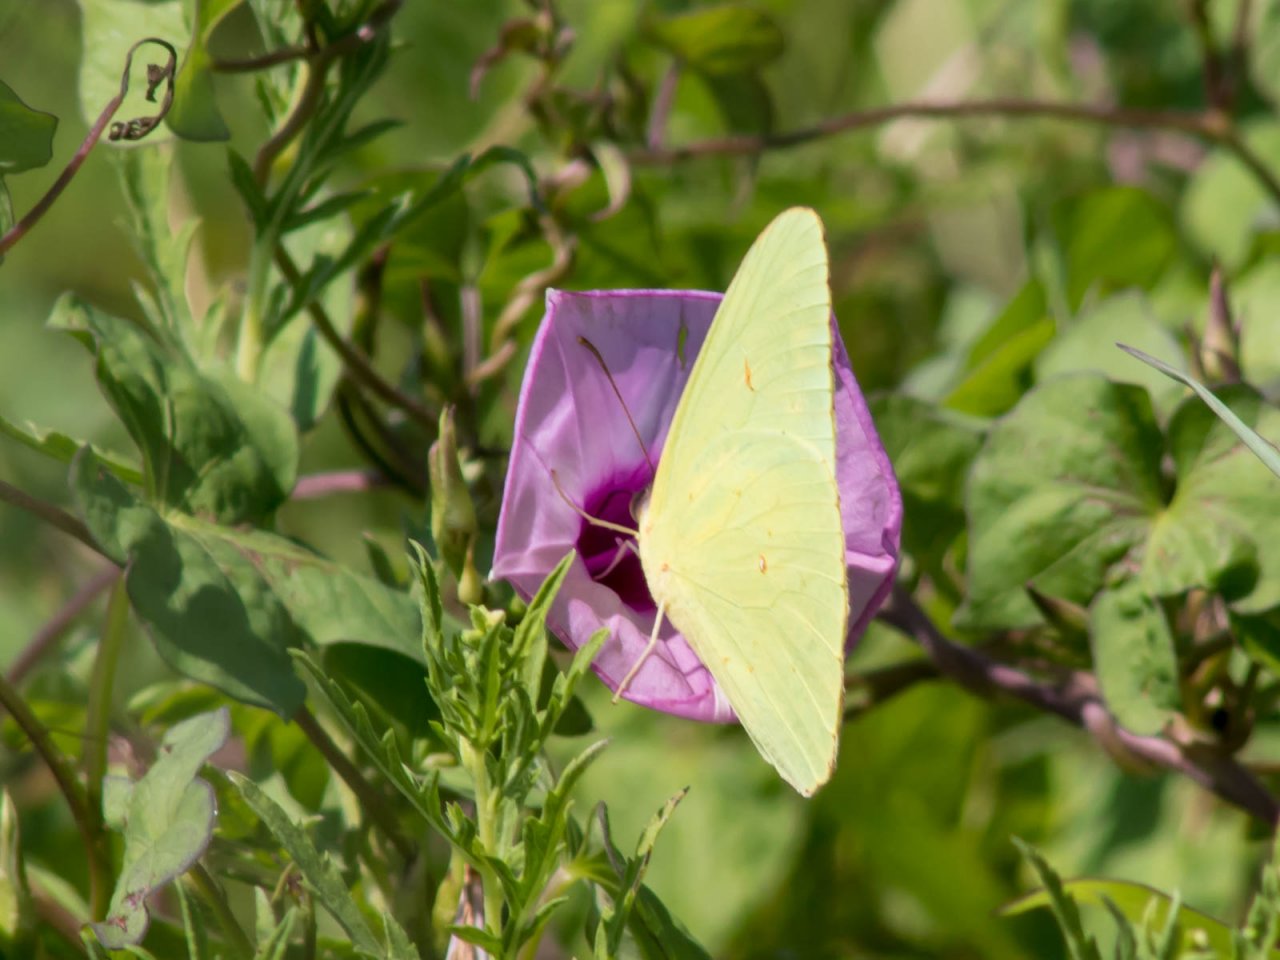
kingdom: Animalia
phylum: Arthropoda
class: Insecta
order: Lepidoptera
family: Pieridae
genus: Phoebis
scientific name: Phoebis sennae
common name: Cloudless Sulphur
